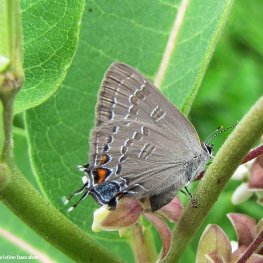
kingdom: Animalia
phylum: Arthropoda
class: Insecta
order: Lepidoptera
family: Lycaenidae
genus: Satyrium
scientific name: Satyrium calanus
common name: Banded Hairstreak
